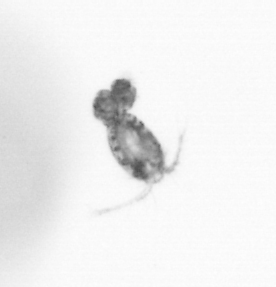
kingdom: Animalia
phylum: Arthropoda
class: Copepoda
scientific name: Copepoda
